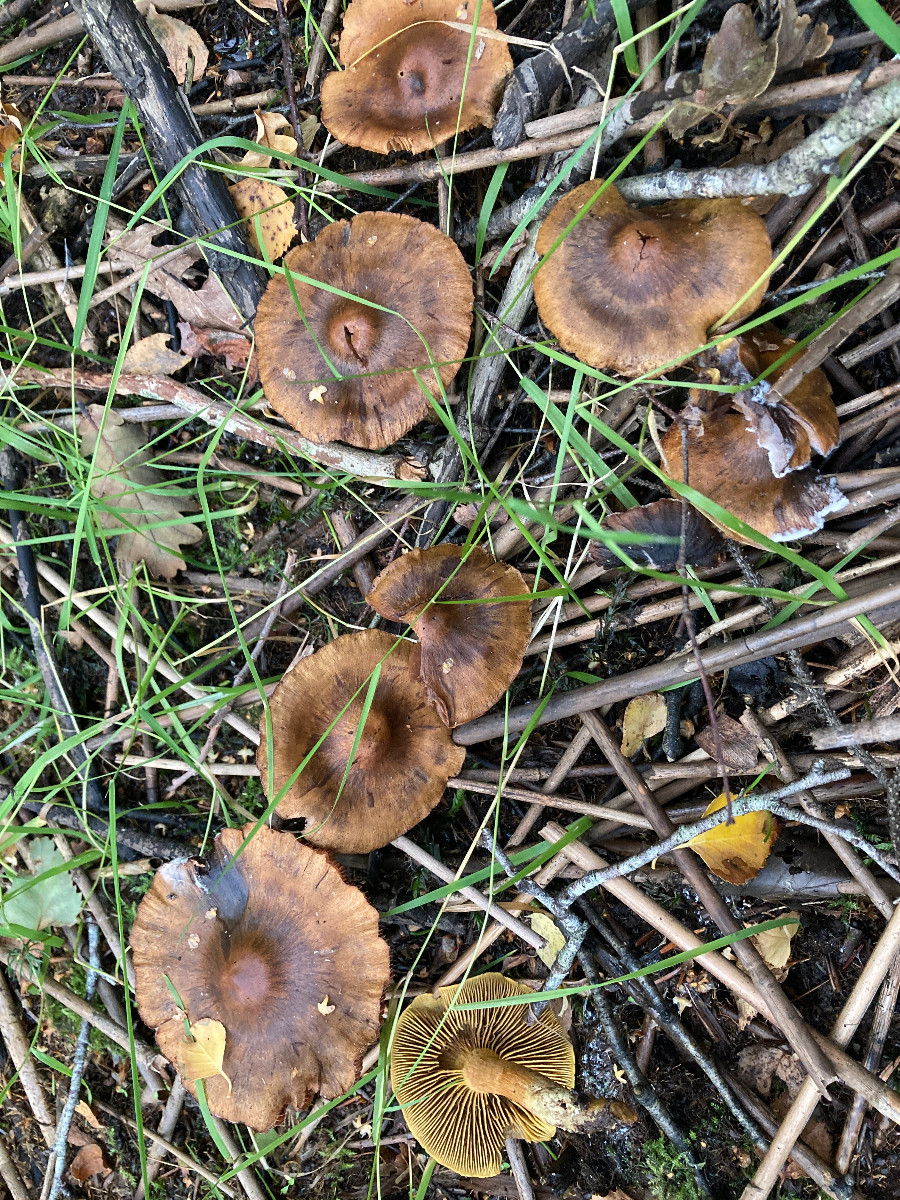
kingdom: Fungi
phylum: Basidiomycota
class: Agaricomycetes
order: Agaricales
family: Cortinariaceae
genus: Cortinarius
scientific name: Cortinarius
